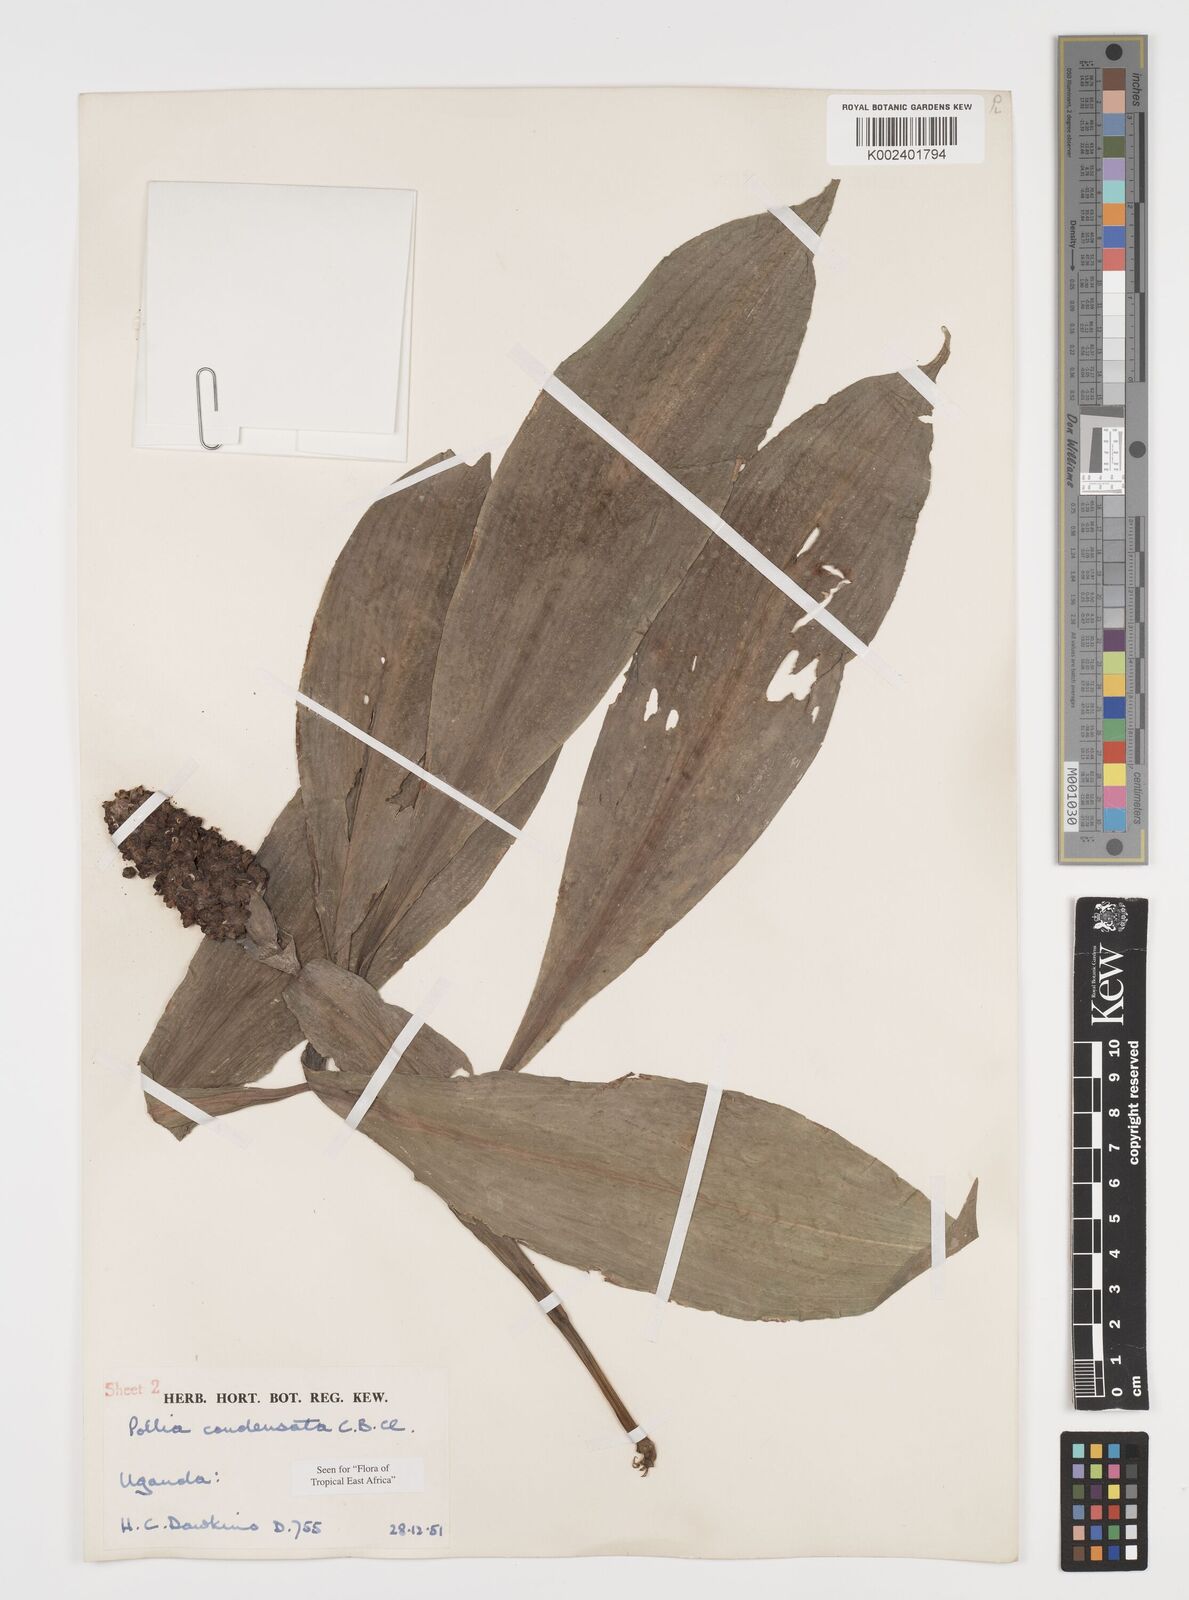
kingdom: Plantae
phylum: Tracheophyta
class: Liliopsida
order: Commelinales
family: Commelinaceae
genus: Pollia
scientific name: Pollia condensata
